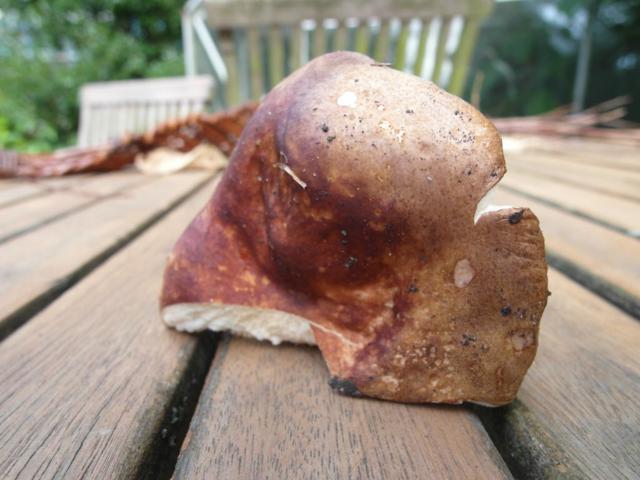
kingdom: Fungi
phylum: Basidiomycota
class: Agaricomycetes
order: Russulales
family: Russulaceae
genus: Russula
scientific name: Russula graveolens
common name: bugtet skørhat
